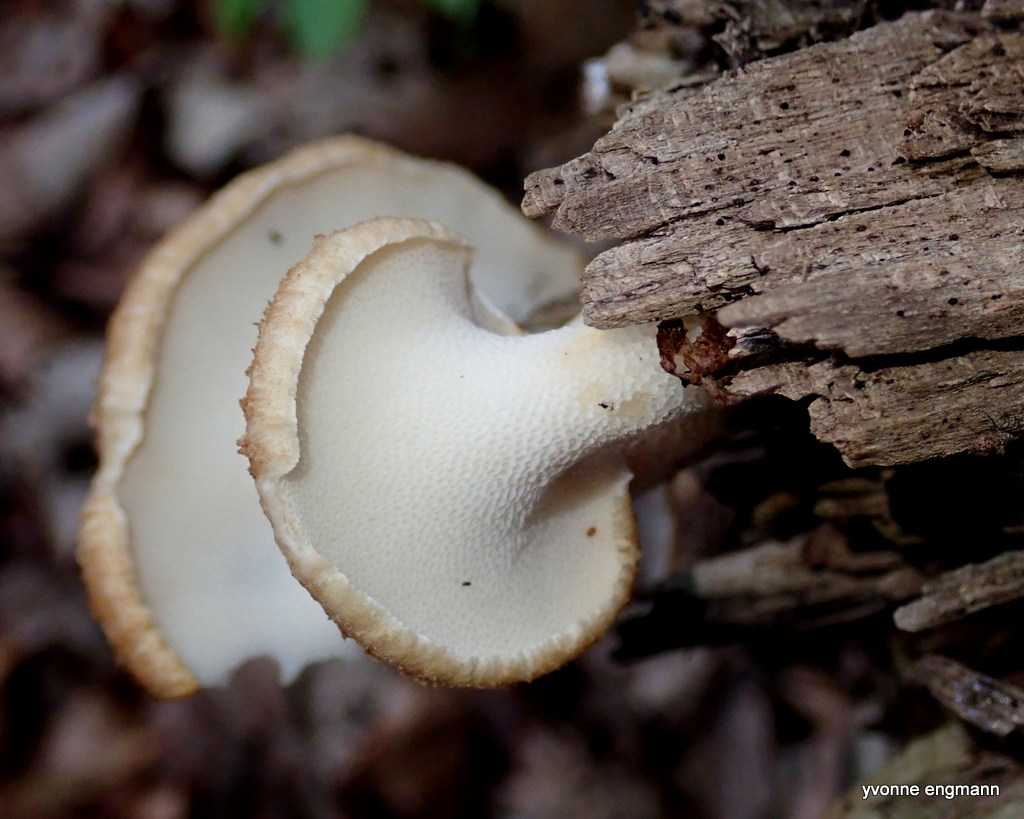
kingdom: Fungi
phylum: Basidiomycota
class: Agaricomycetes
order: Polyporales
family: Polyporaceae
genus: Polyporus
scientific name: Polyporus tuberaster
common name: knoldet stilkporesvamp
